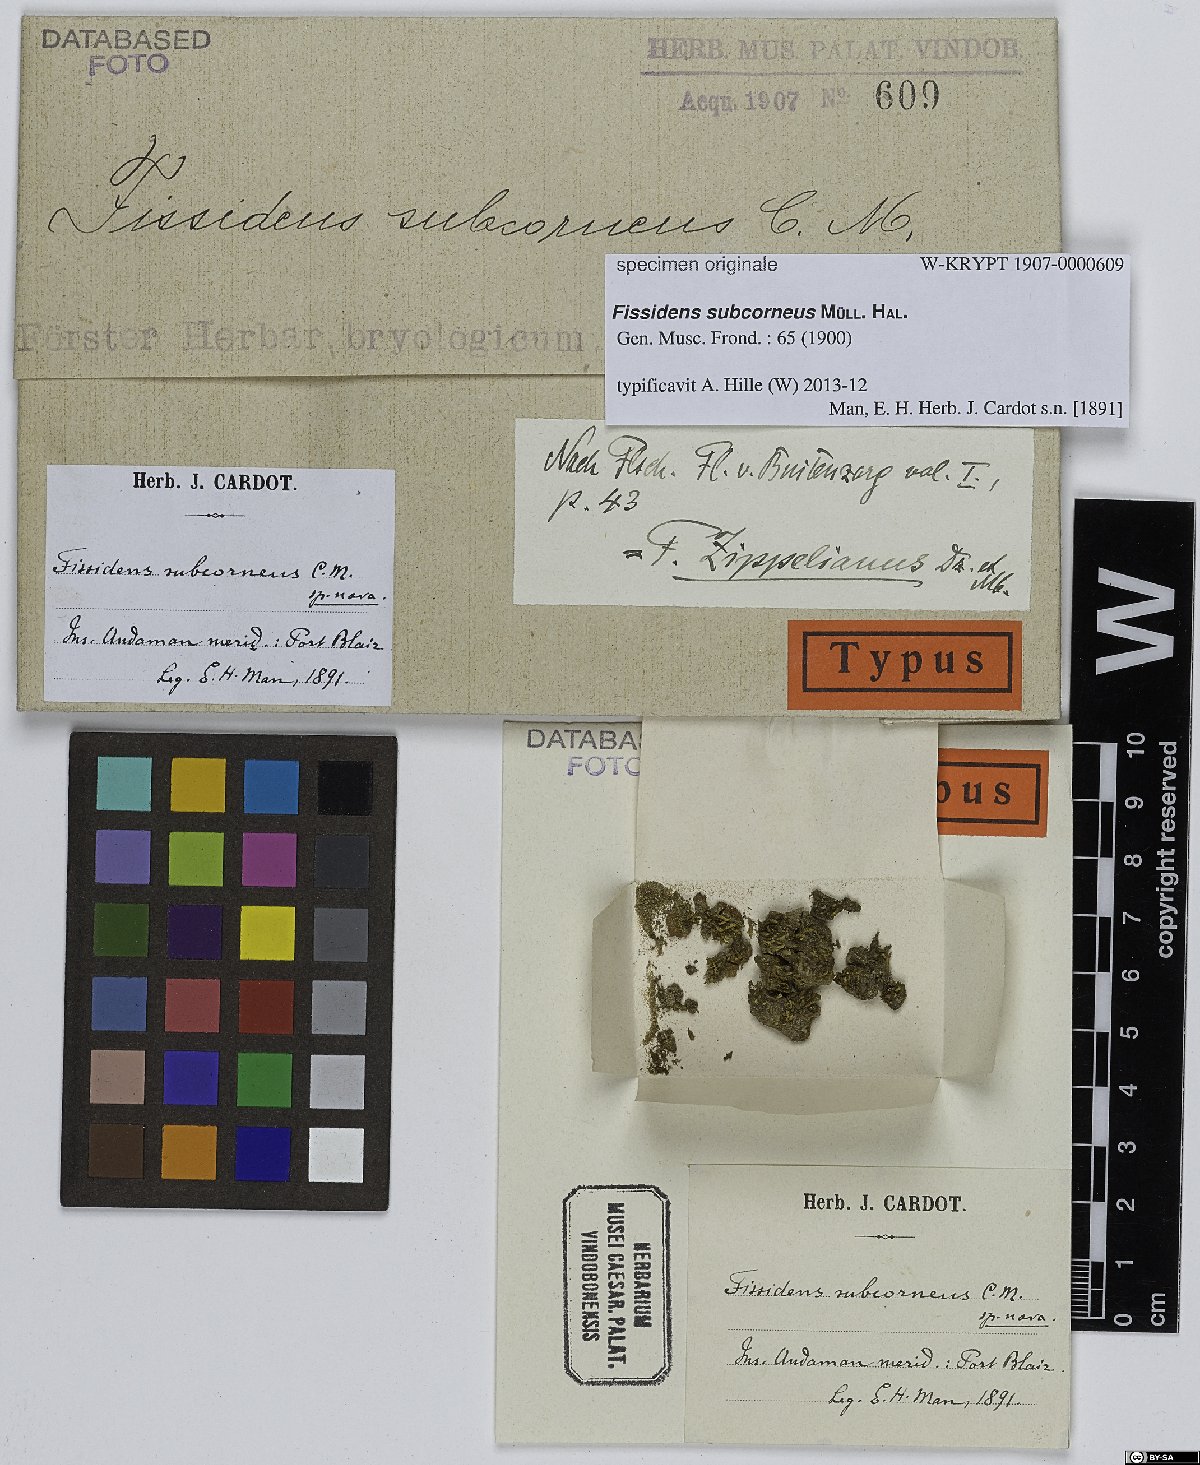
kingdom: Plantae
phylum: Bryophyta
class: Bryopsida
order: Dicranales
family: Fissidentaceae
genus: Fissidens
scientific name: Fissidens
